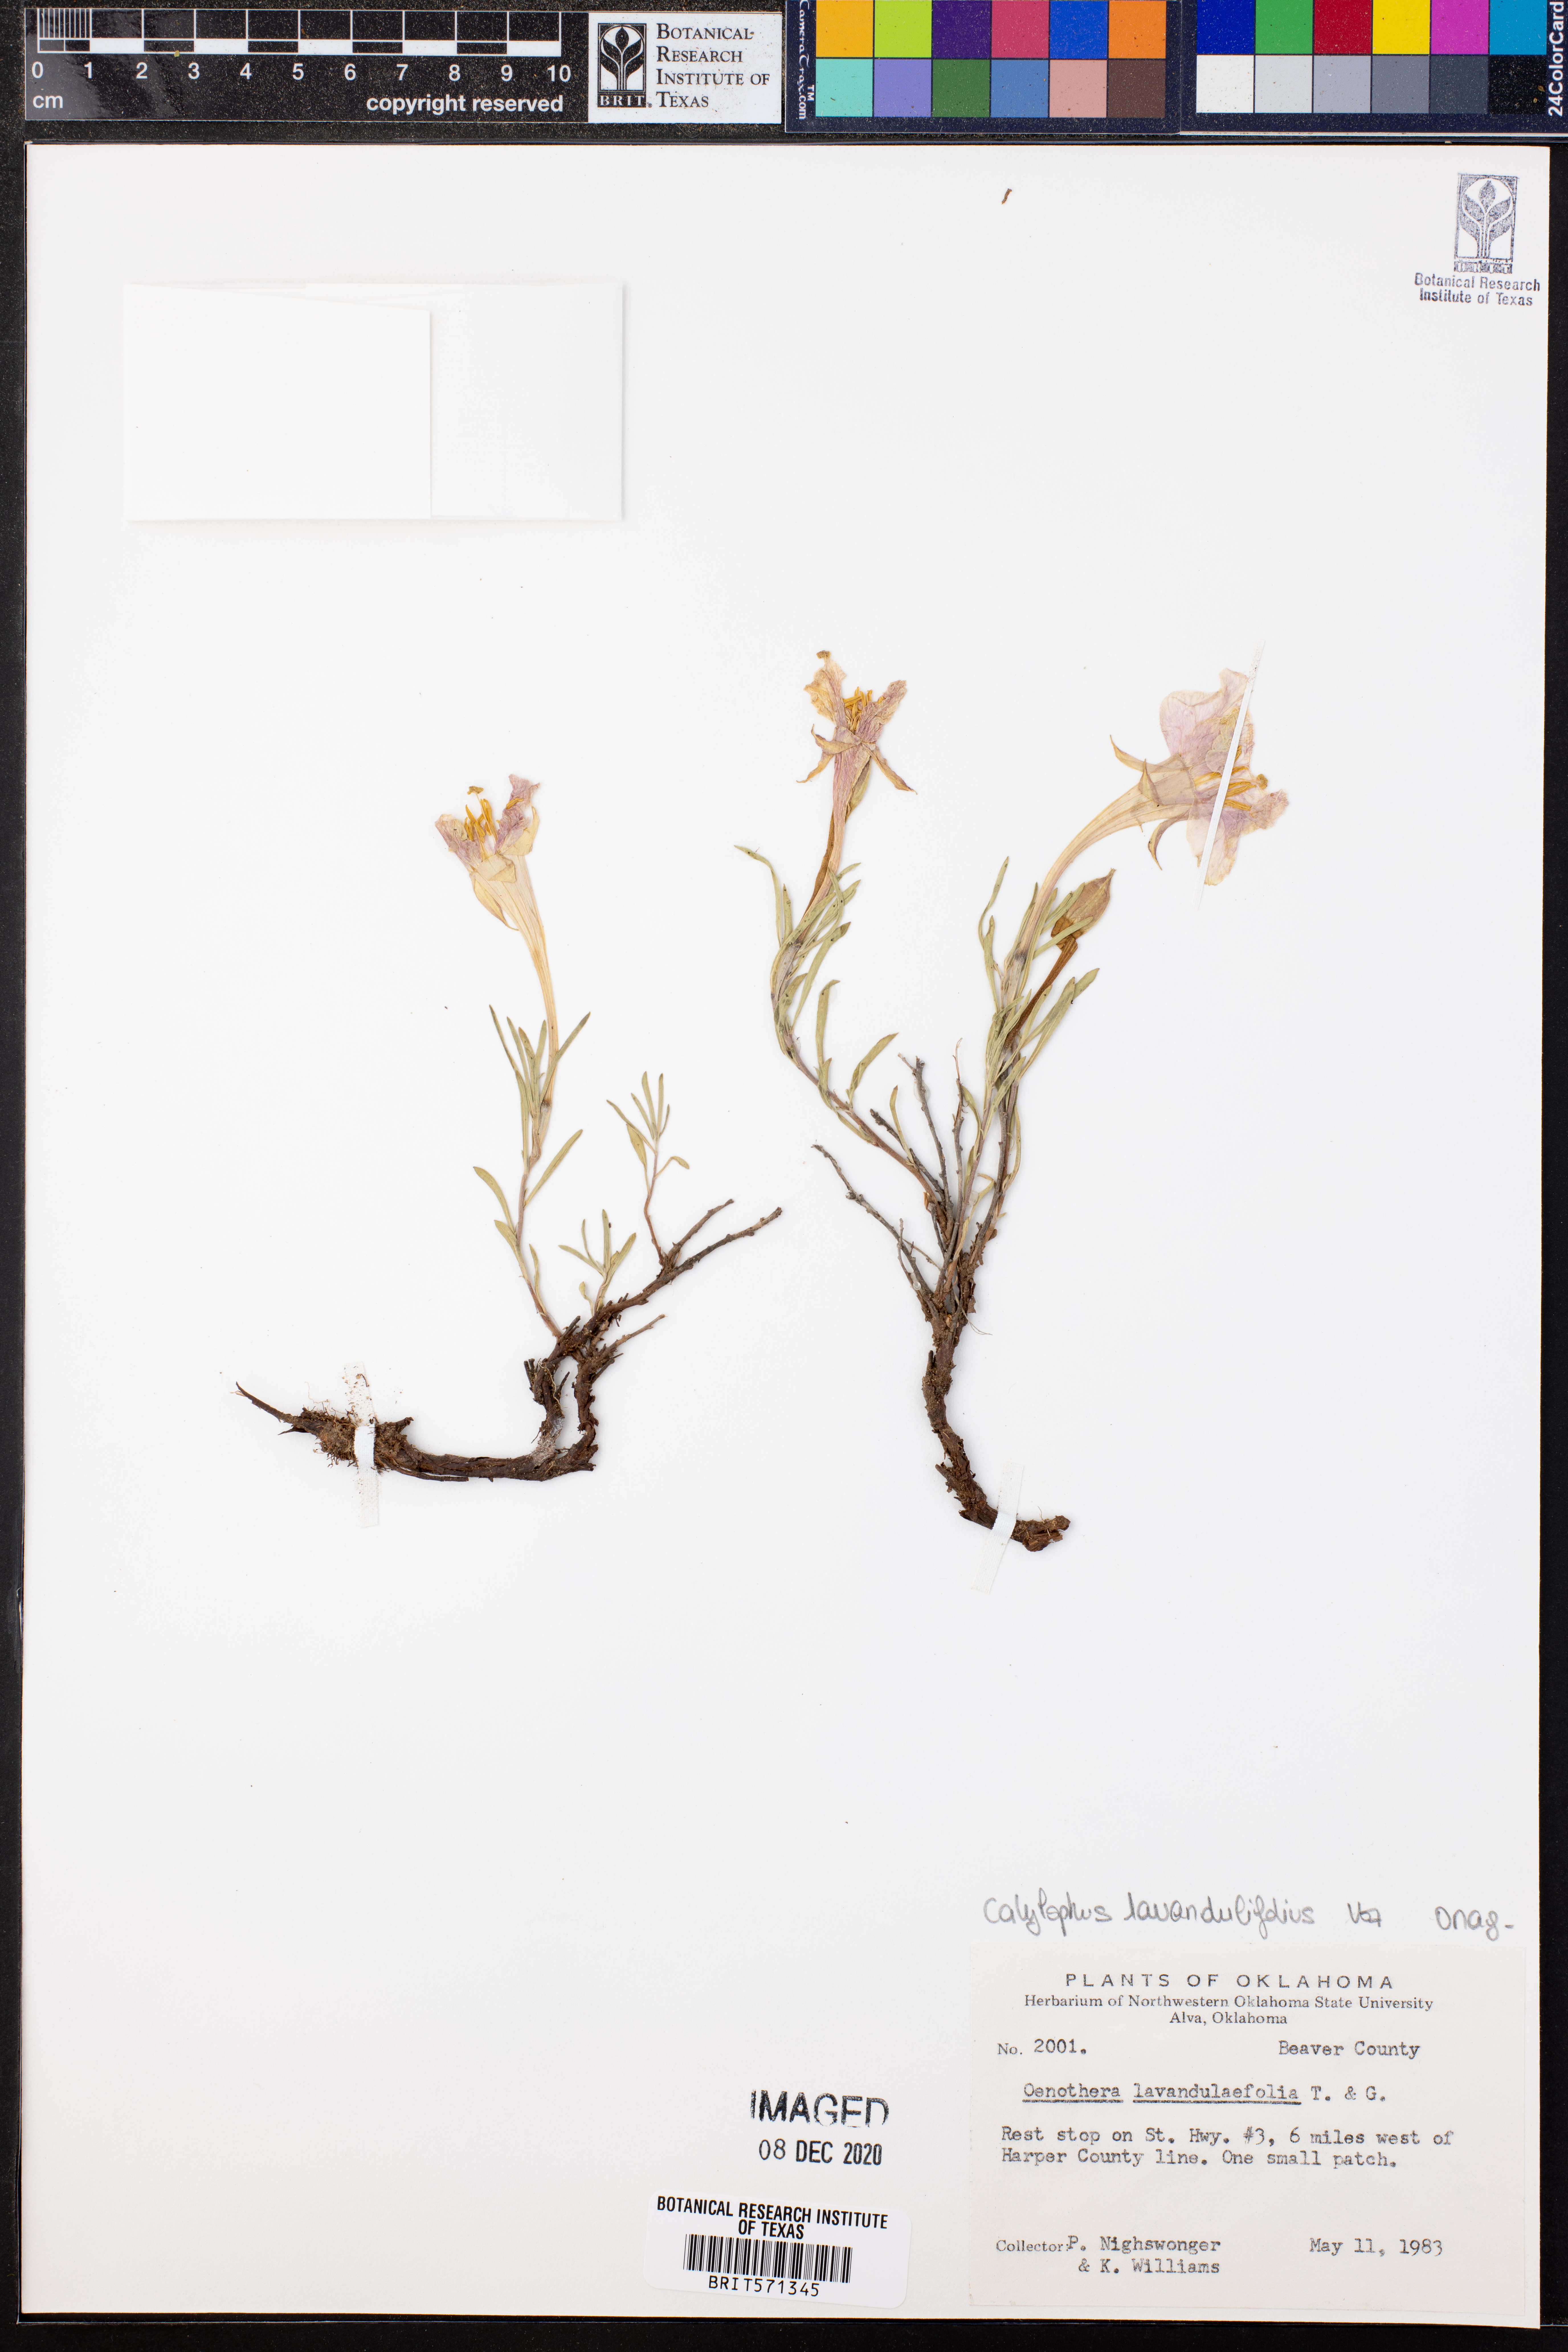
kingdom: Plantae
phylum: Tracheophyta
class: Magnoliopsida
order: Myrtales
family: Onagraceae
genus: Oenothera
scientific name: Oenothera lavandulifolia
